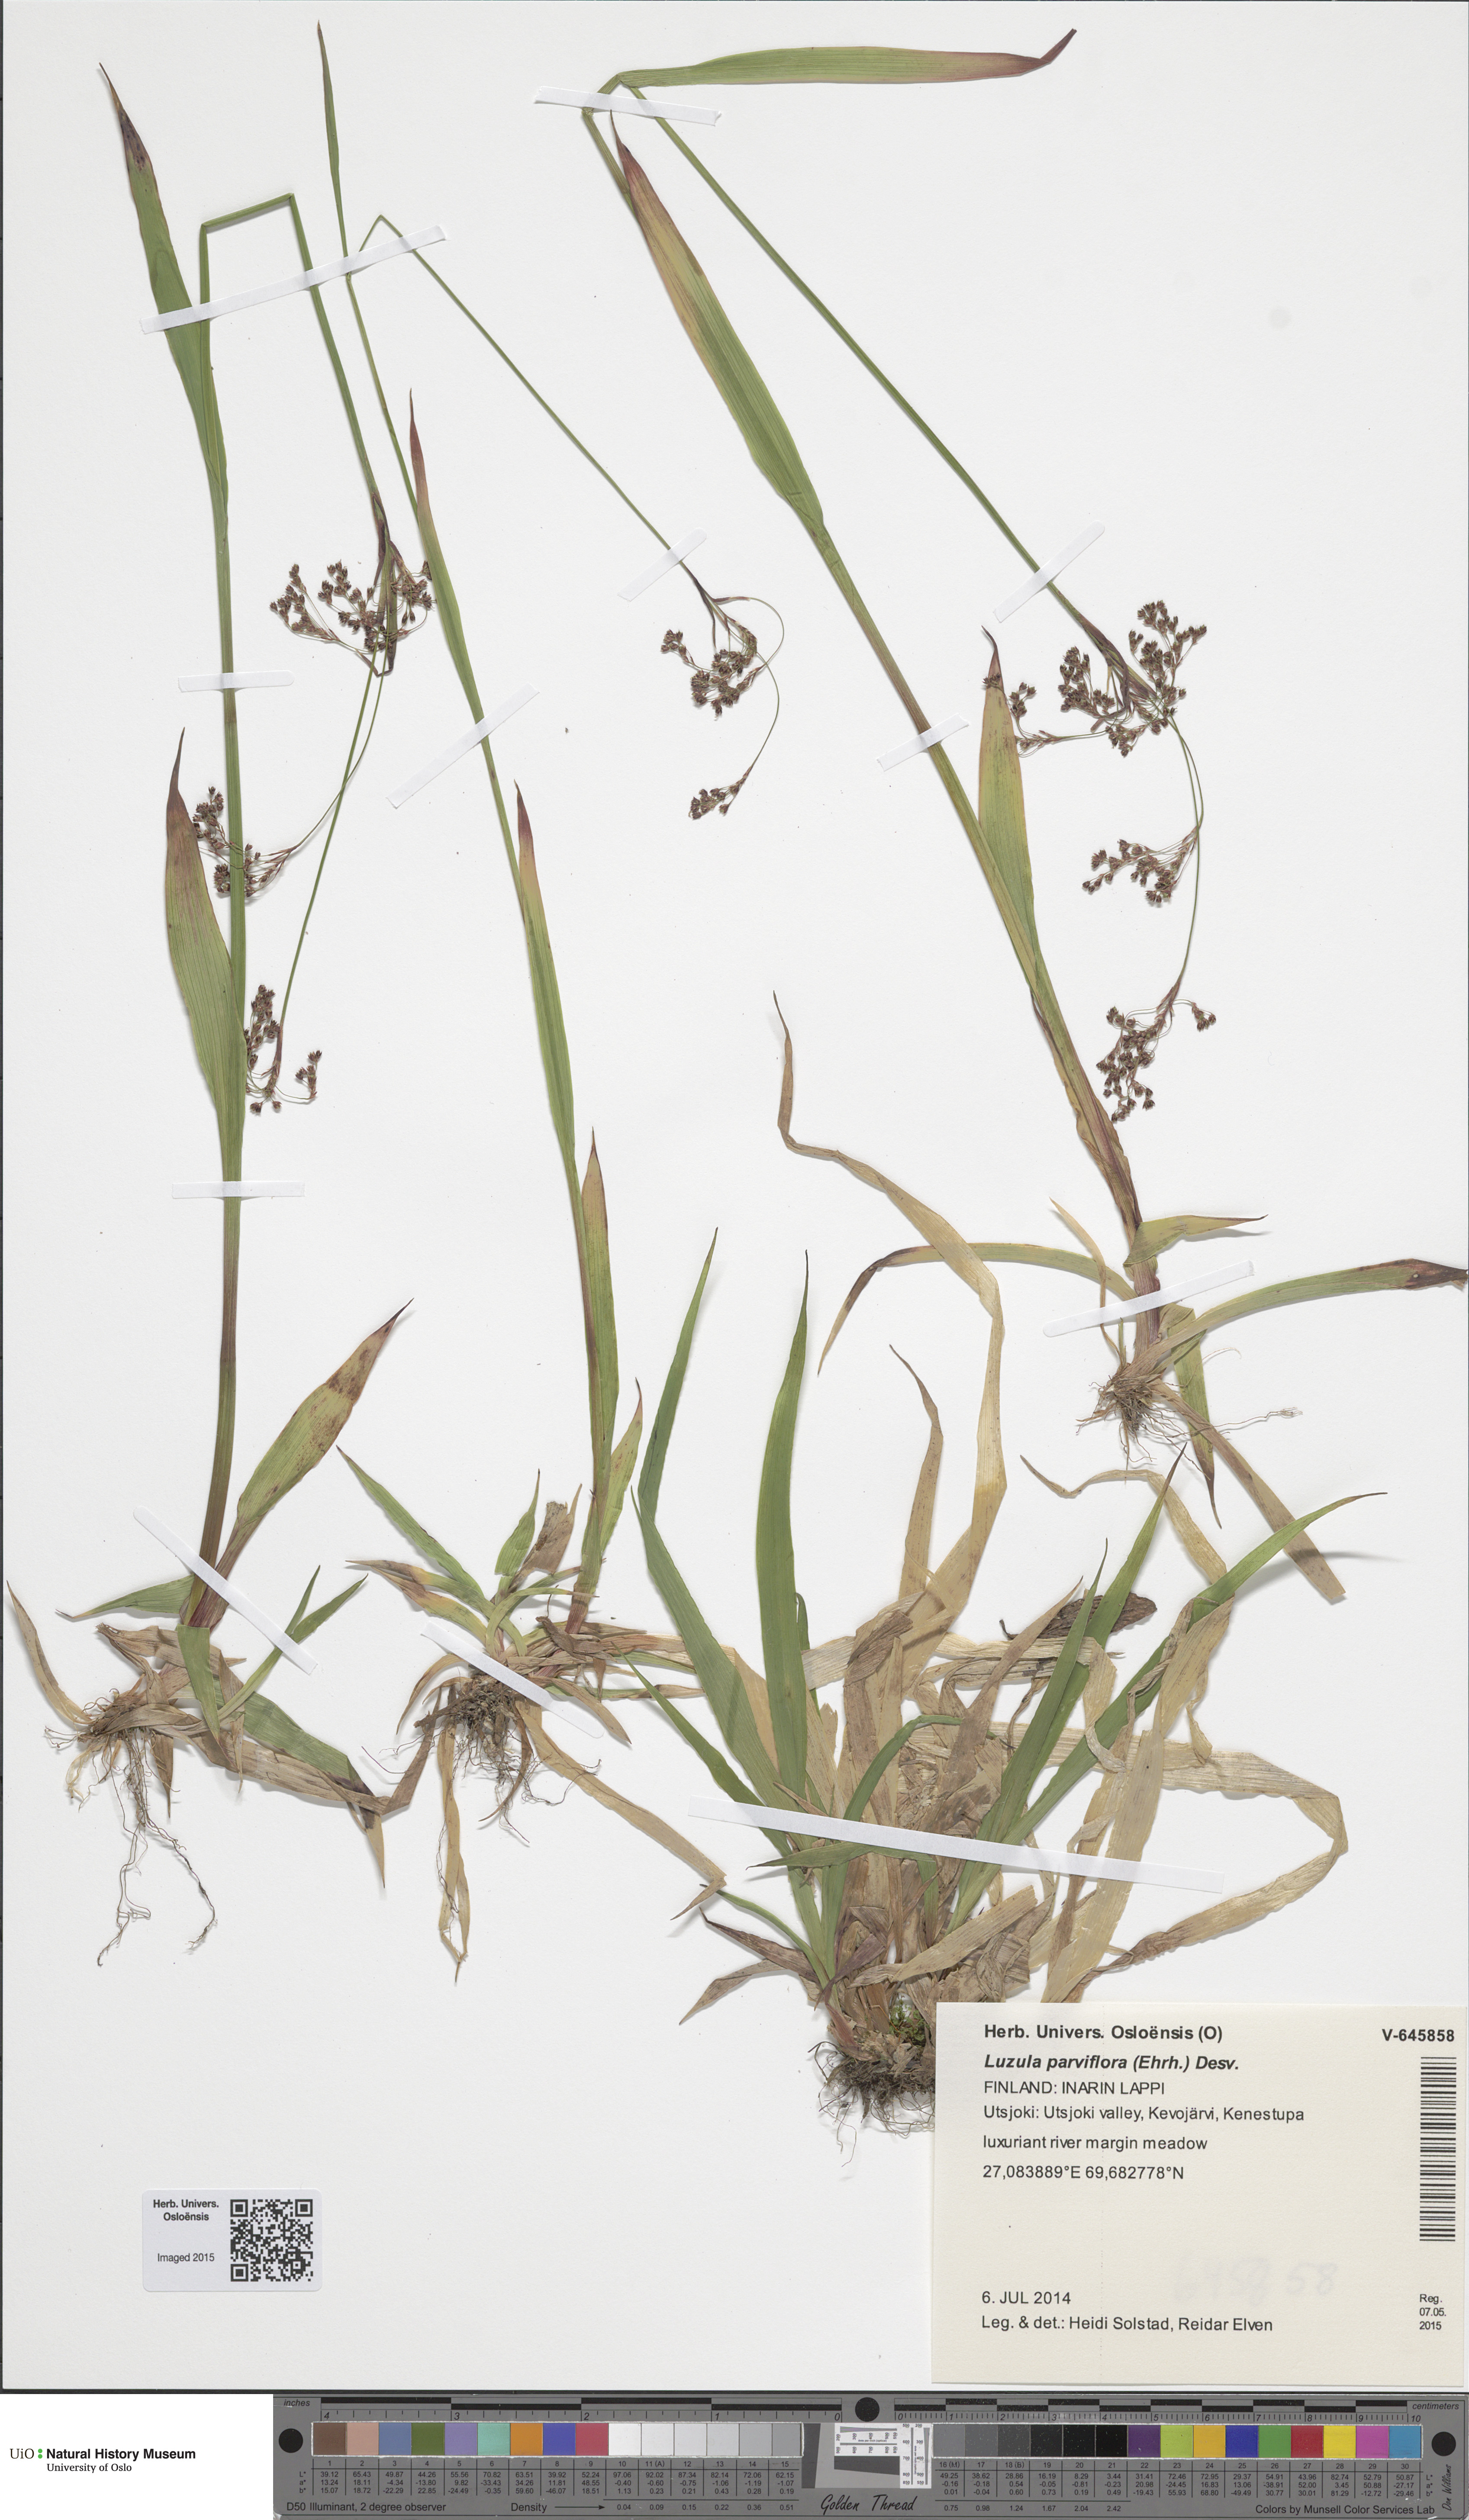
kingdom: Plantae
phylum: Tracheophyta
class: Liliopsida
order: Poales
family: Juncaceae
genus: Luzula
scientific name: Luzula parviflora
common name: Millet woodrush
